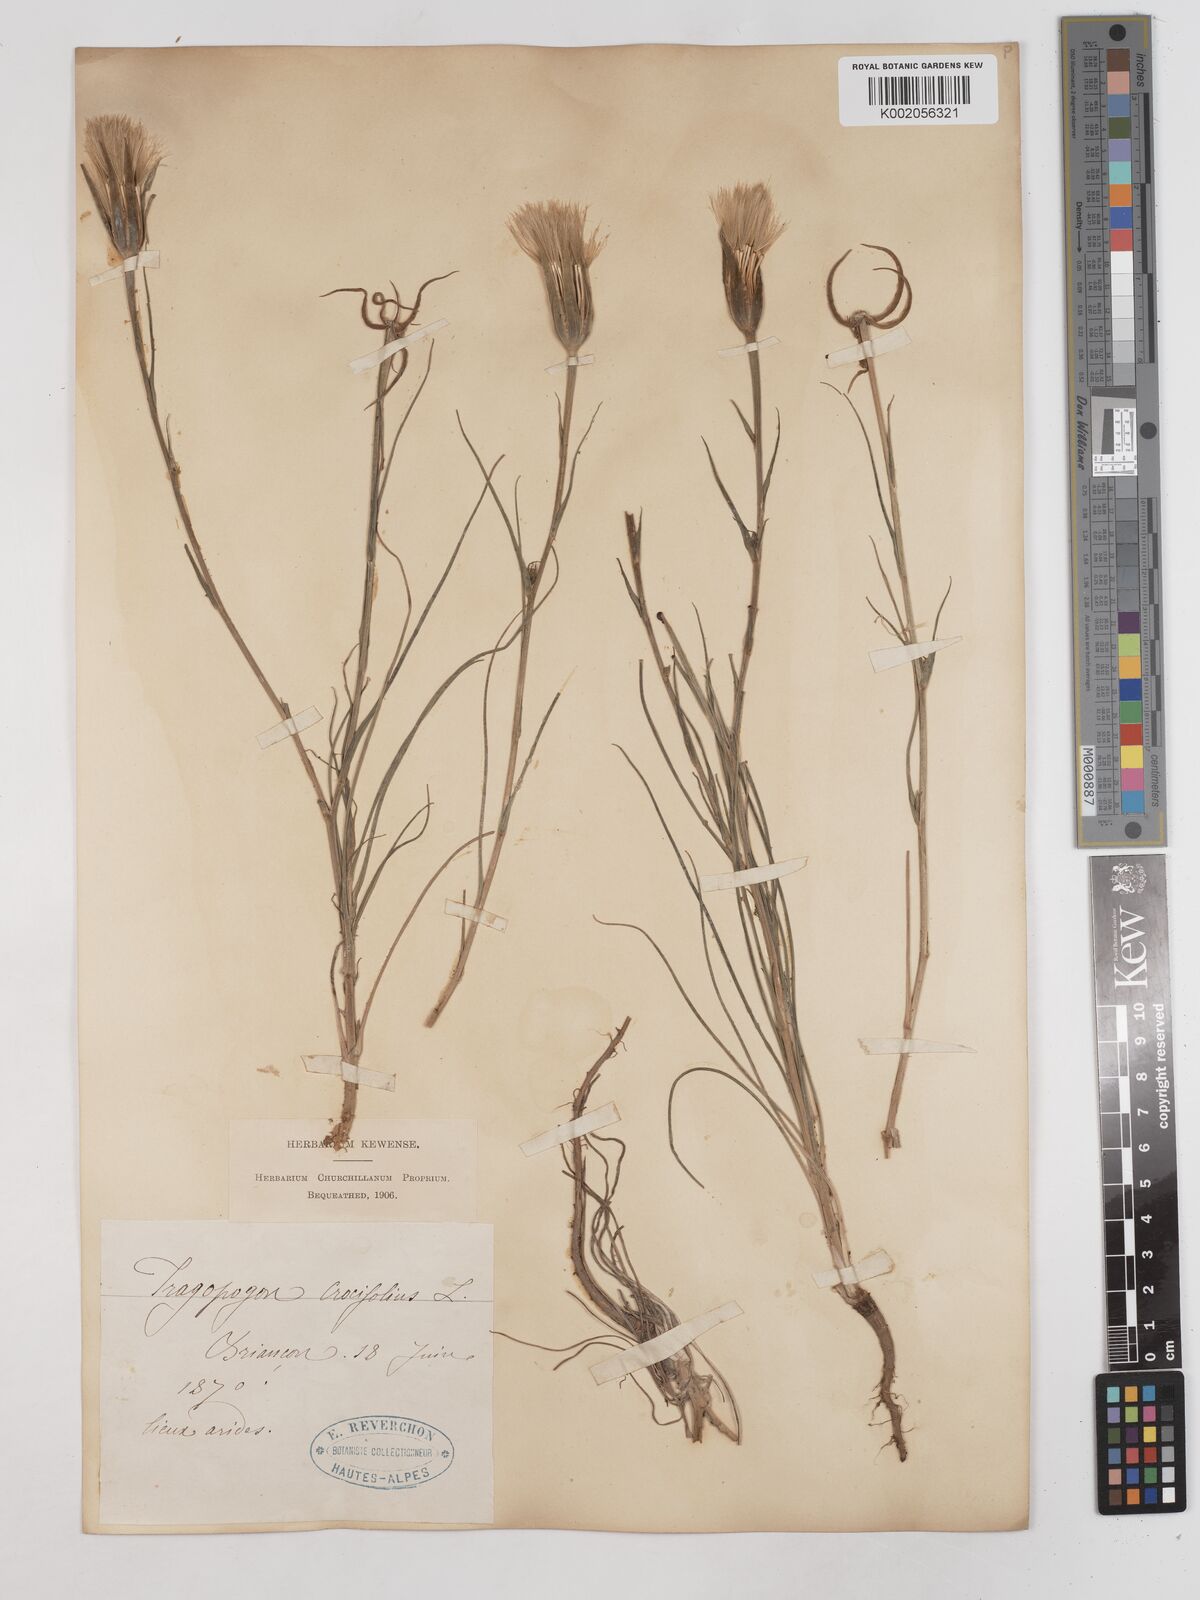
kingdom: Plantae
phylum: Tracheophyta
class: Magnoliopsida
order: Asterales
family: Asteraceae
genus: Tragopogon
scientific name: Tragopogon crocifolius
